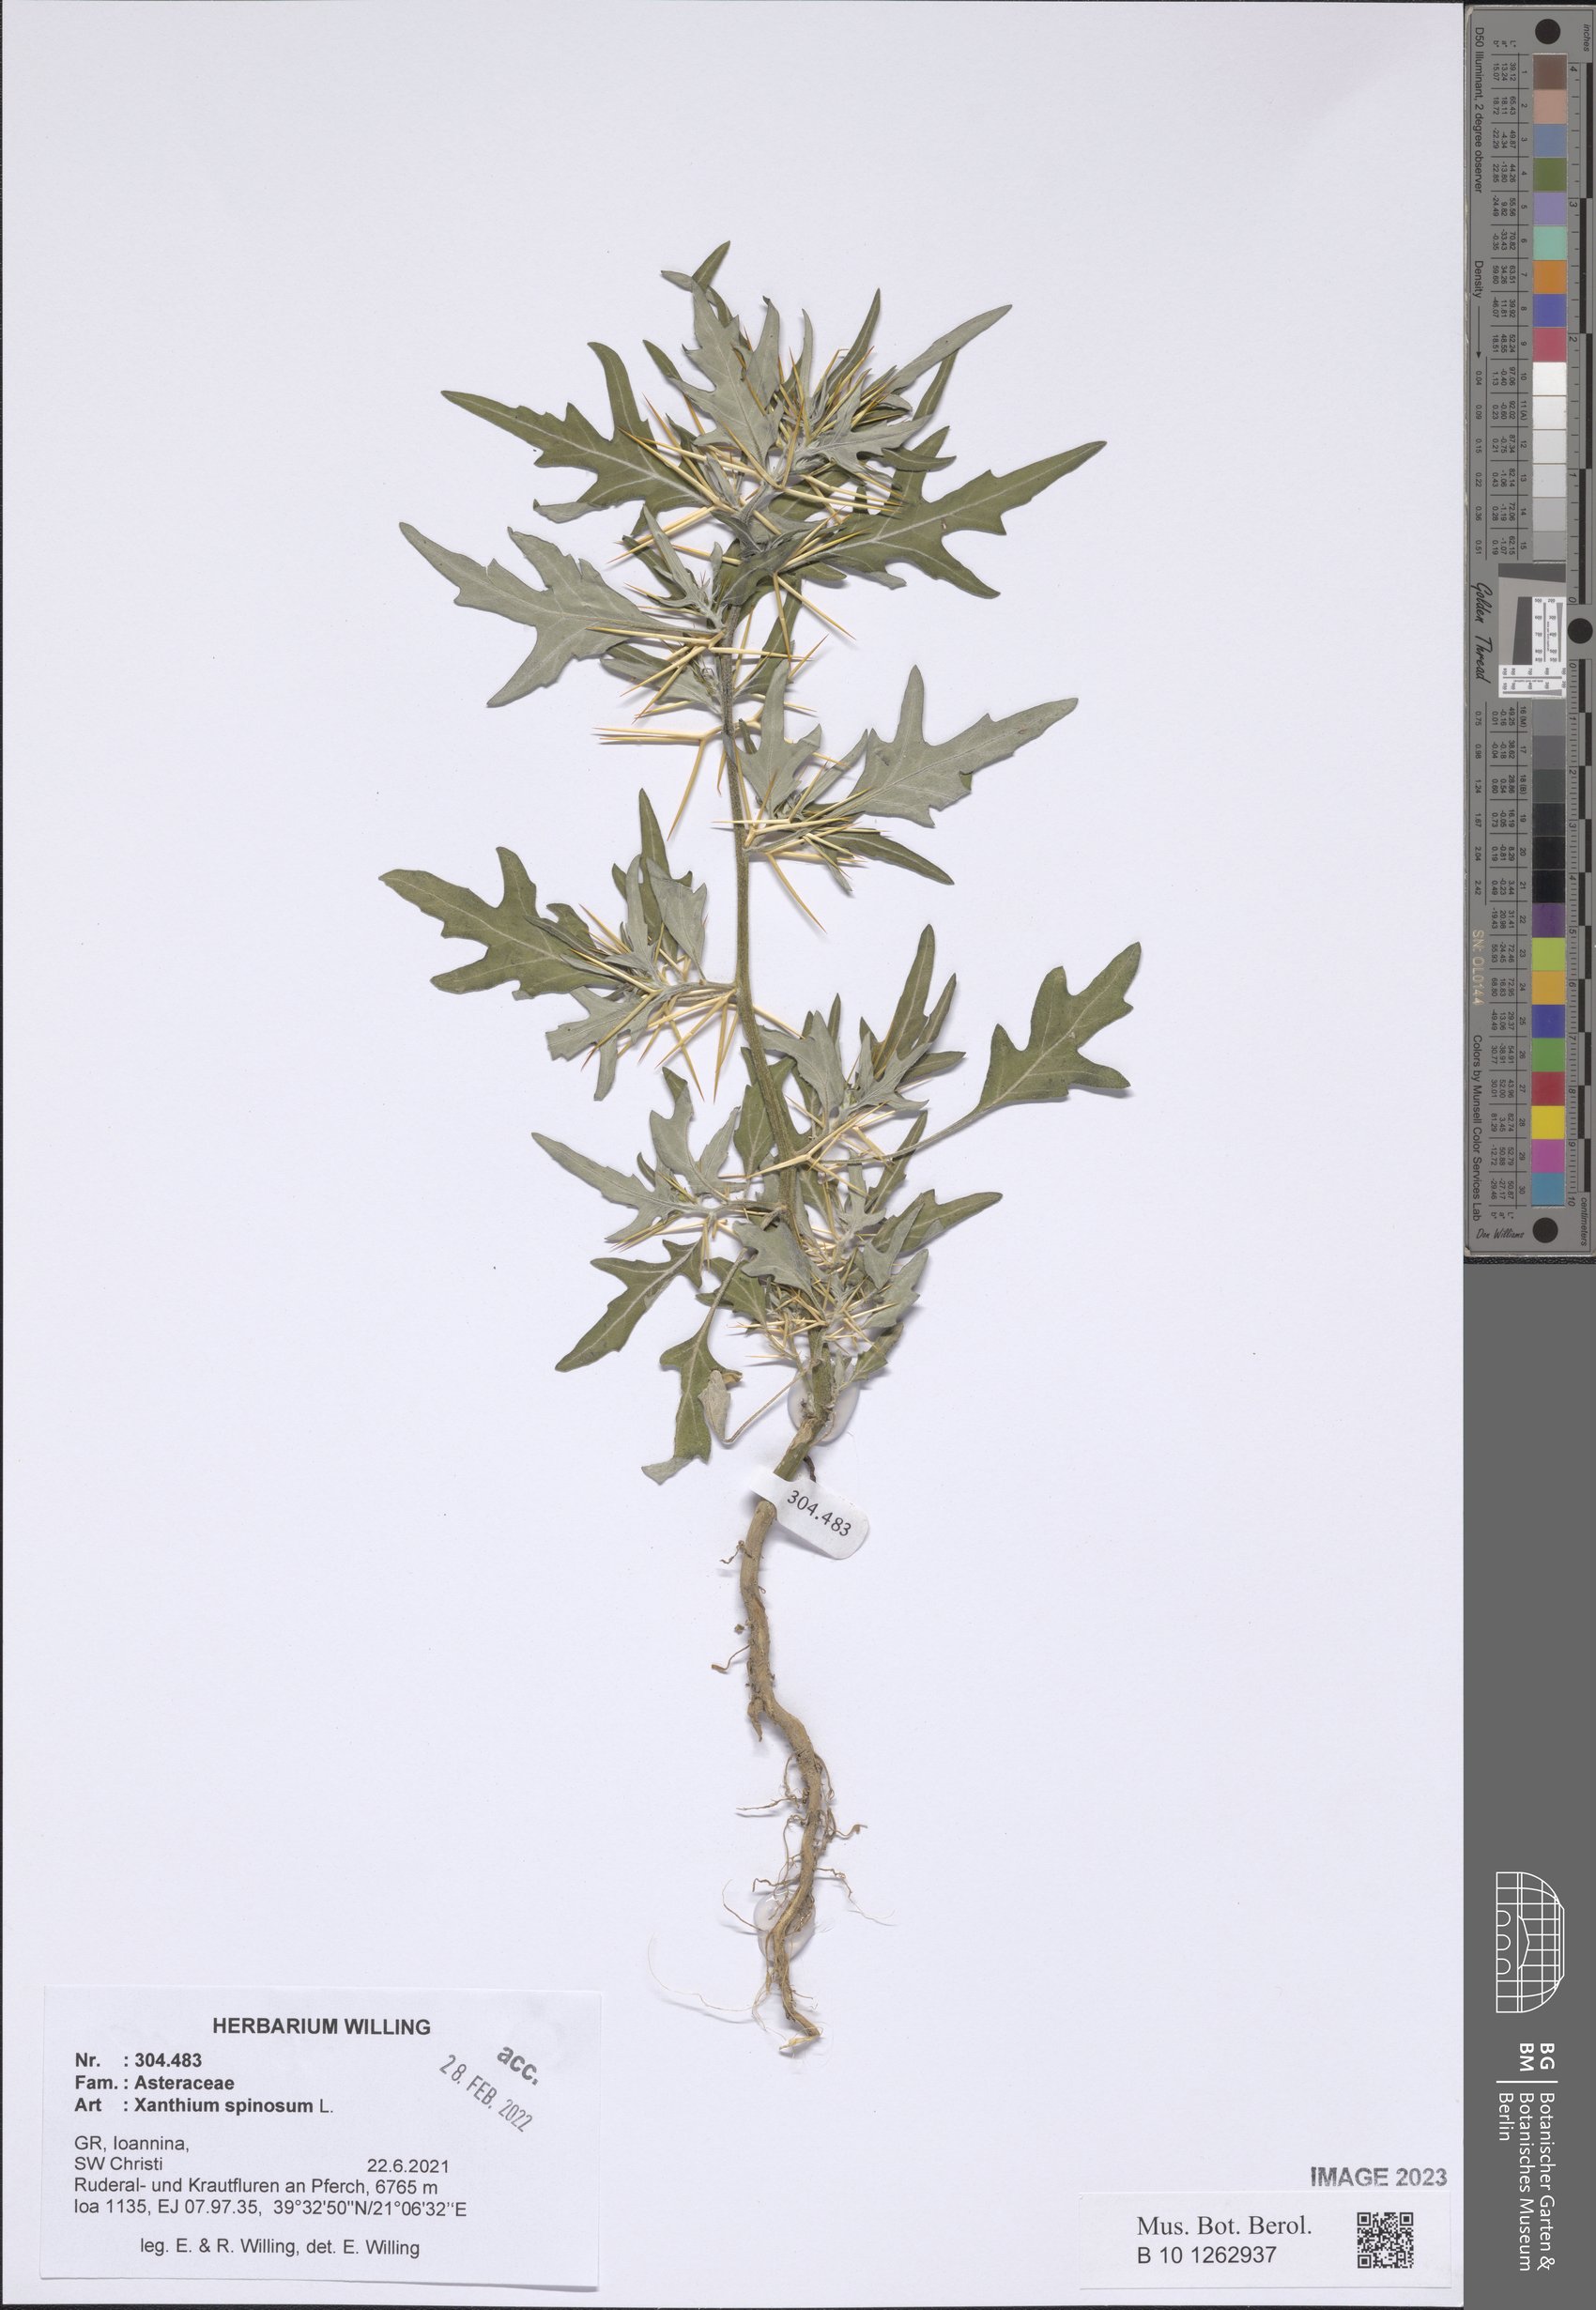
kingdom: Plantae
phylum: Tracheophyta
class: Magnoliopsida
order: Asterales
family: Asteraceae
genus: Xanthium
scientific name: Xanthium spinosum
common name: Spiny cocklebur
